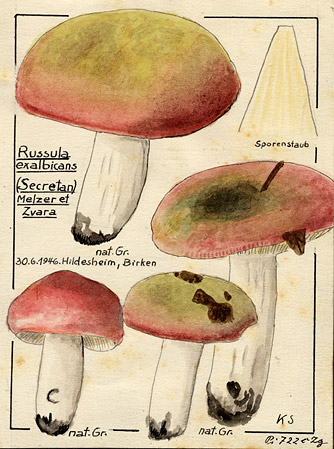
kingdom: Fungi
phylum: Basidiomycota
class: Agaricomycetes
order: Russulales
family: Russulaceae
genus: Russula
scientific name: Russula exalbicans
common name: Bleached brittlegill
